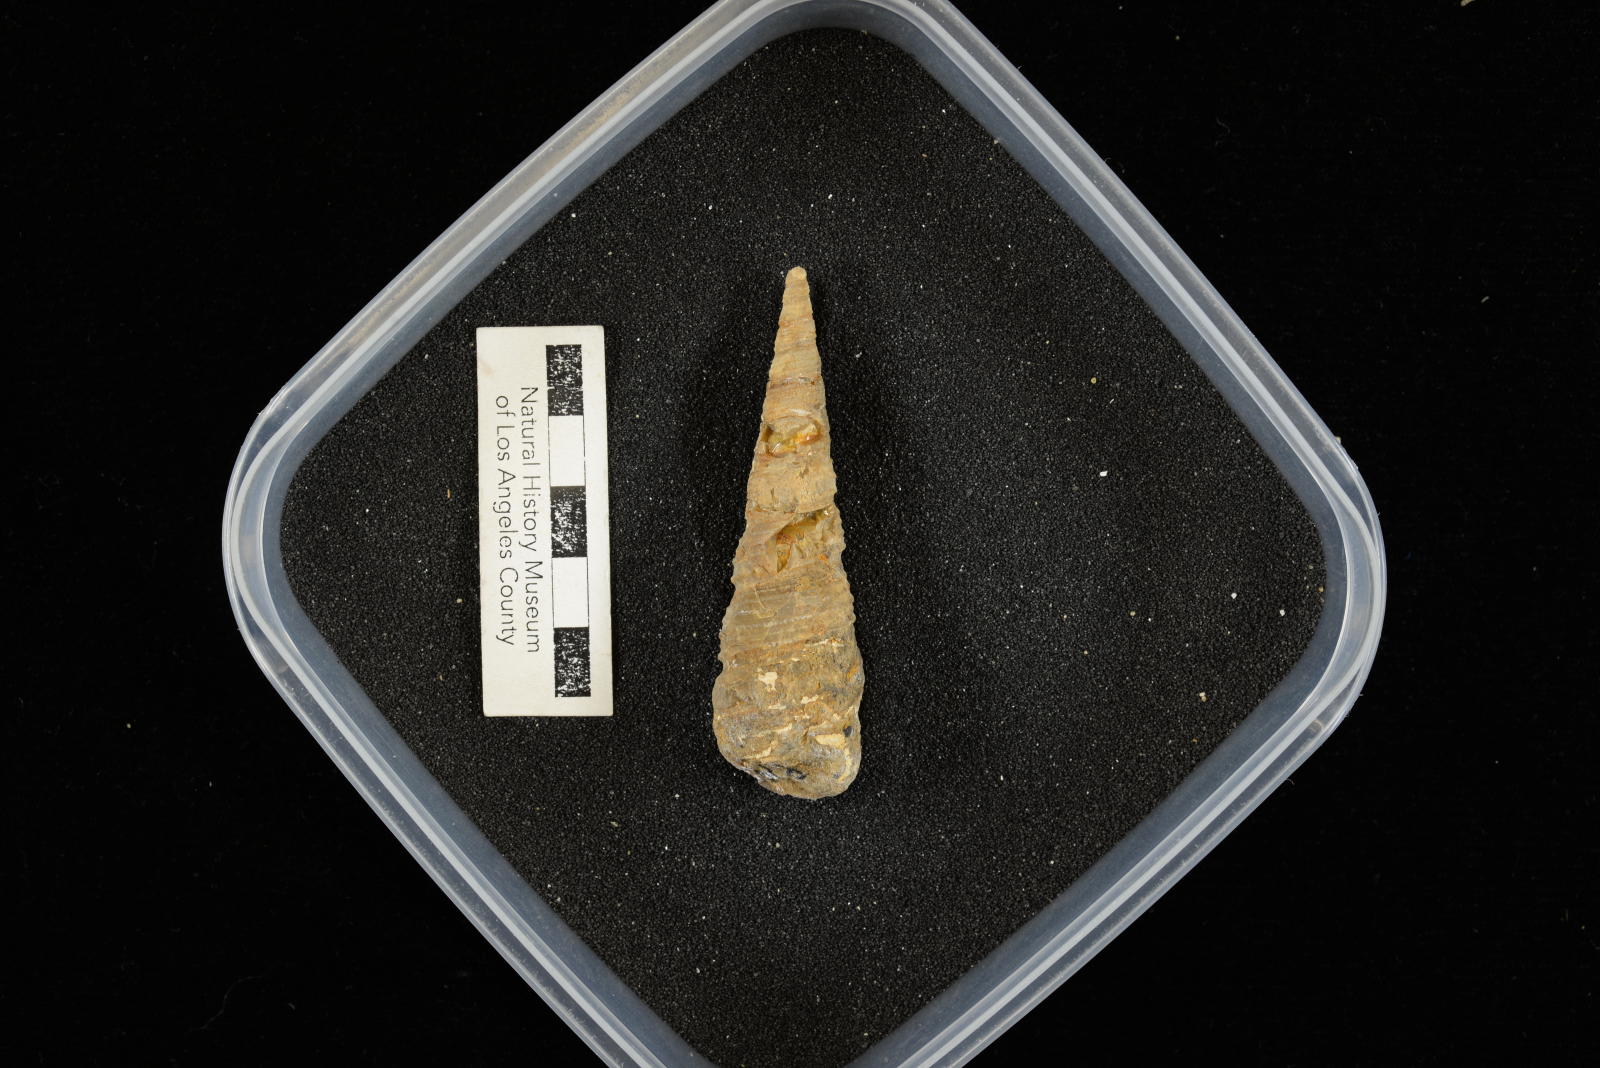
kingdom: Animalia
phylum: Mollusca
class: Gastropoda
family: Turritellidae
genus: Turritella
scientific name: Turritella chicoensis
